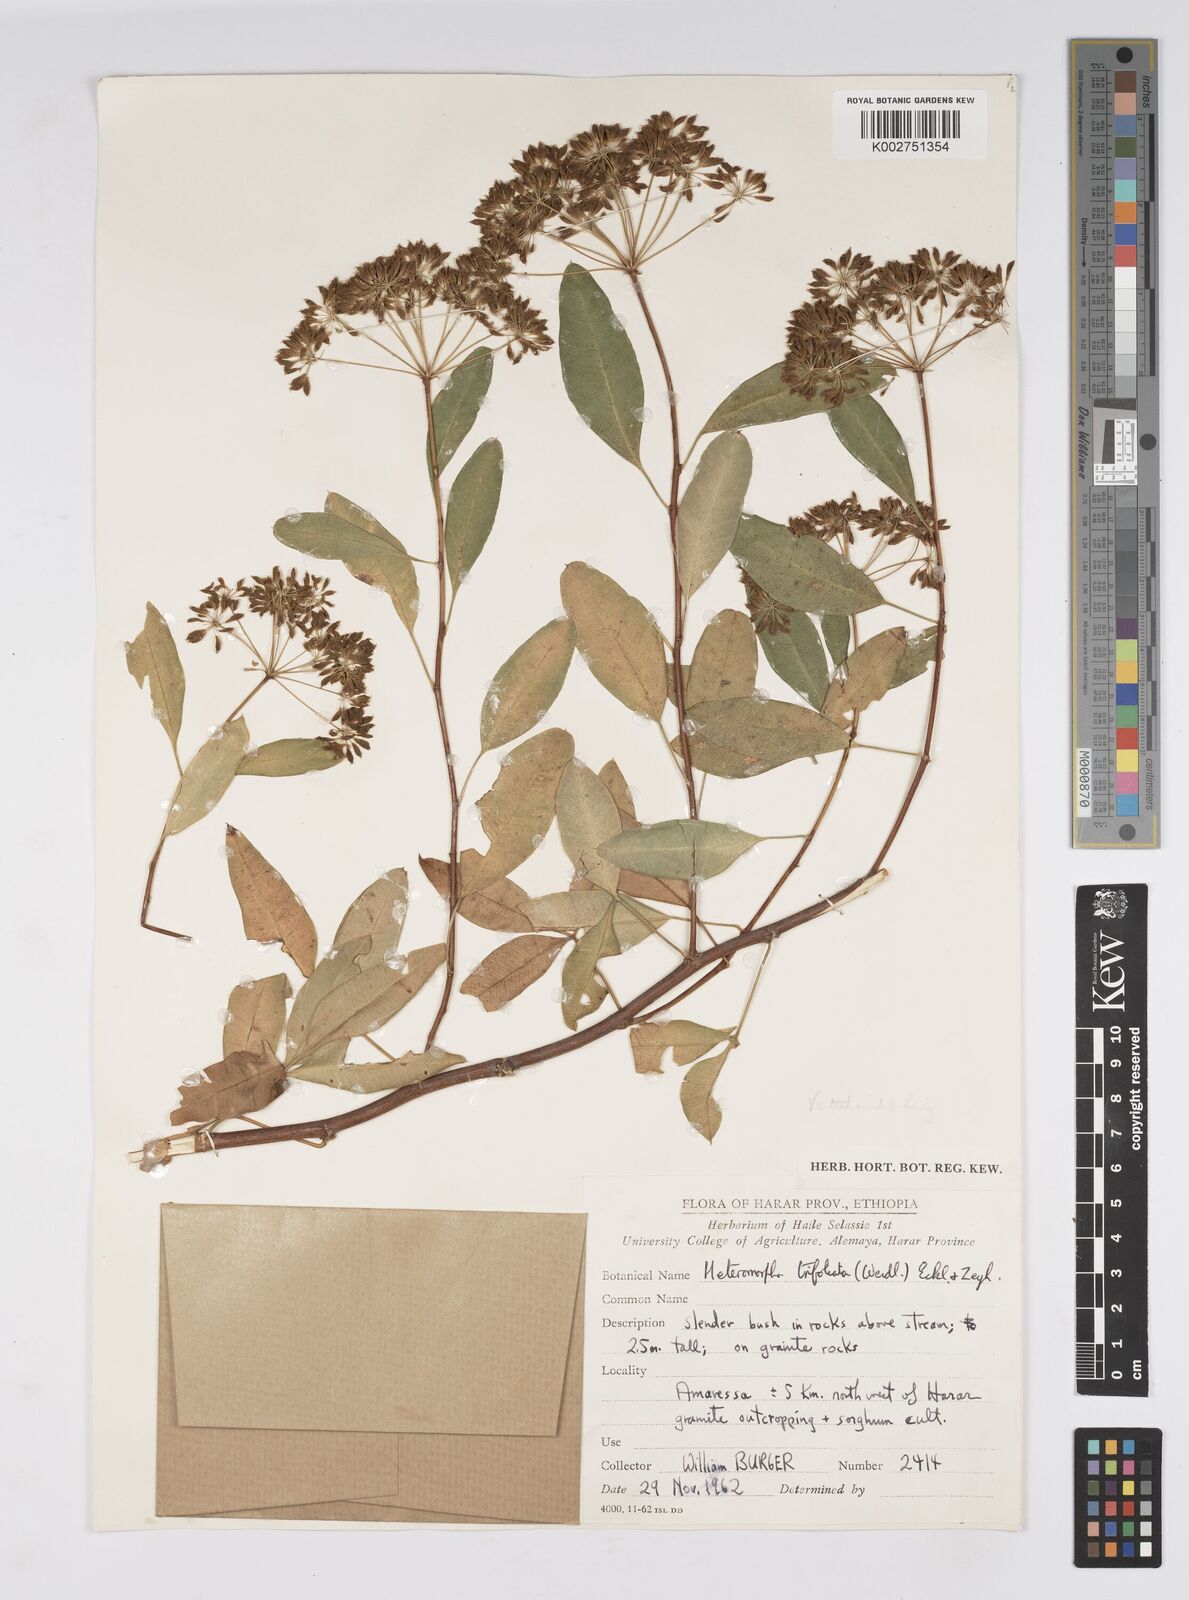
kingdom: Plantae
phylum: Tracheophyta
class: Magnoliopsida
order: Apiales
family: Apiaceae
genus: Heteromorpha
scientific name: Heteromorpha
